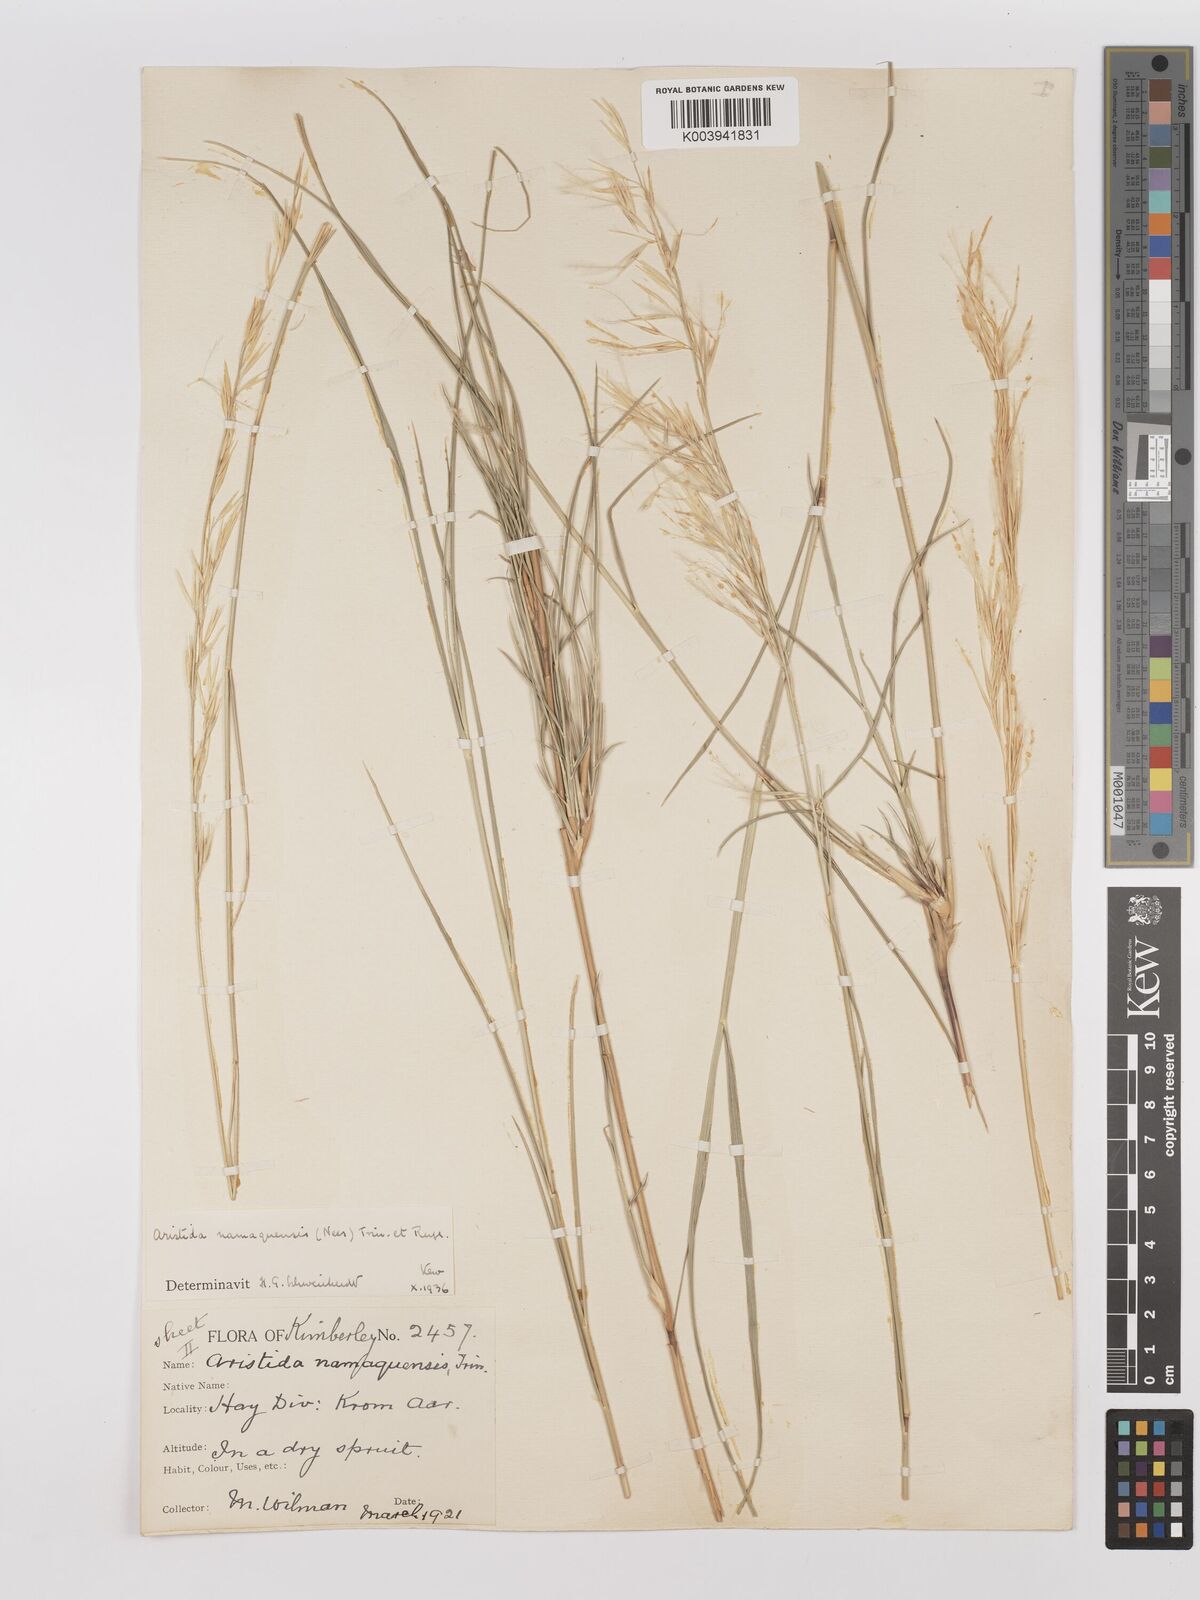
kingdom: Plantae
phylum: Tracheophyta
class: Liliopsida
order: Poales
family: Poaceae
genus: Stipagrostis
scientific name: Stipagrostis namaquensis
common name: River bushman grass
